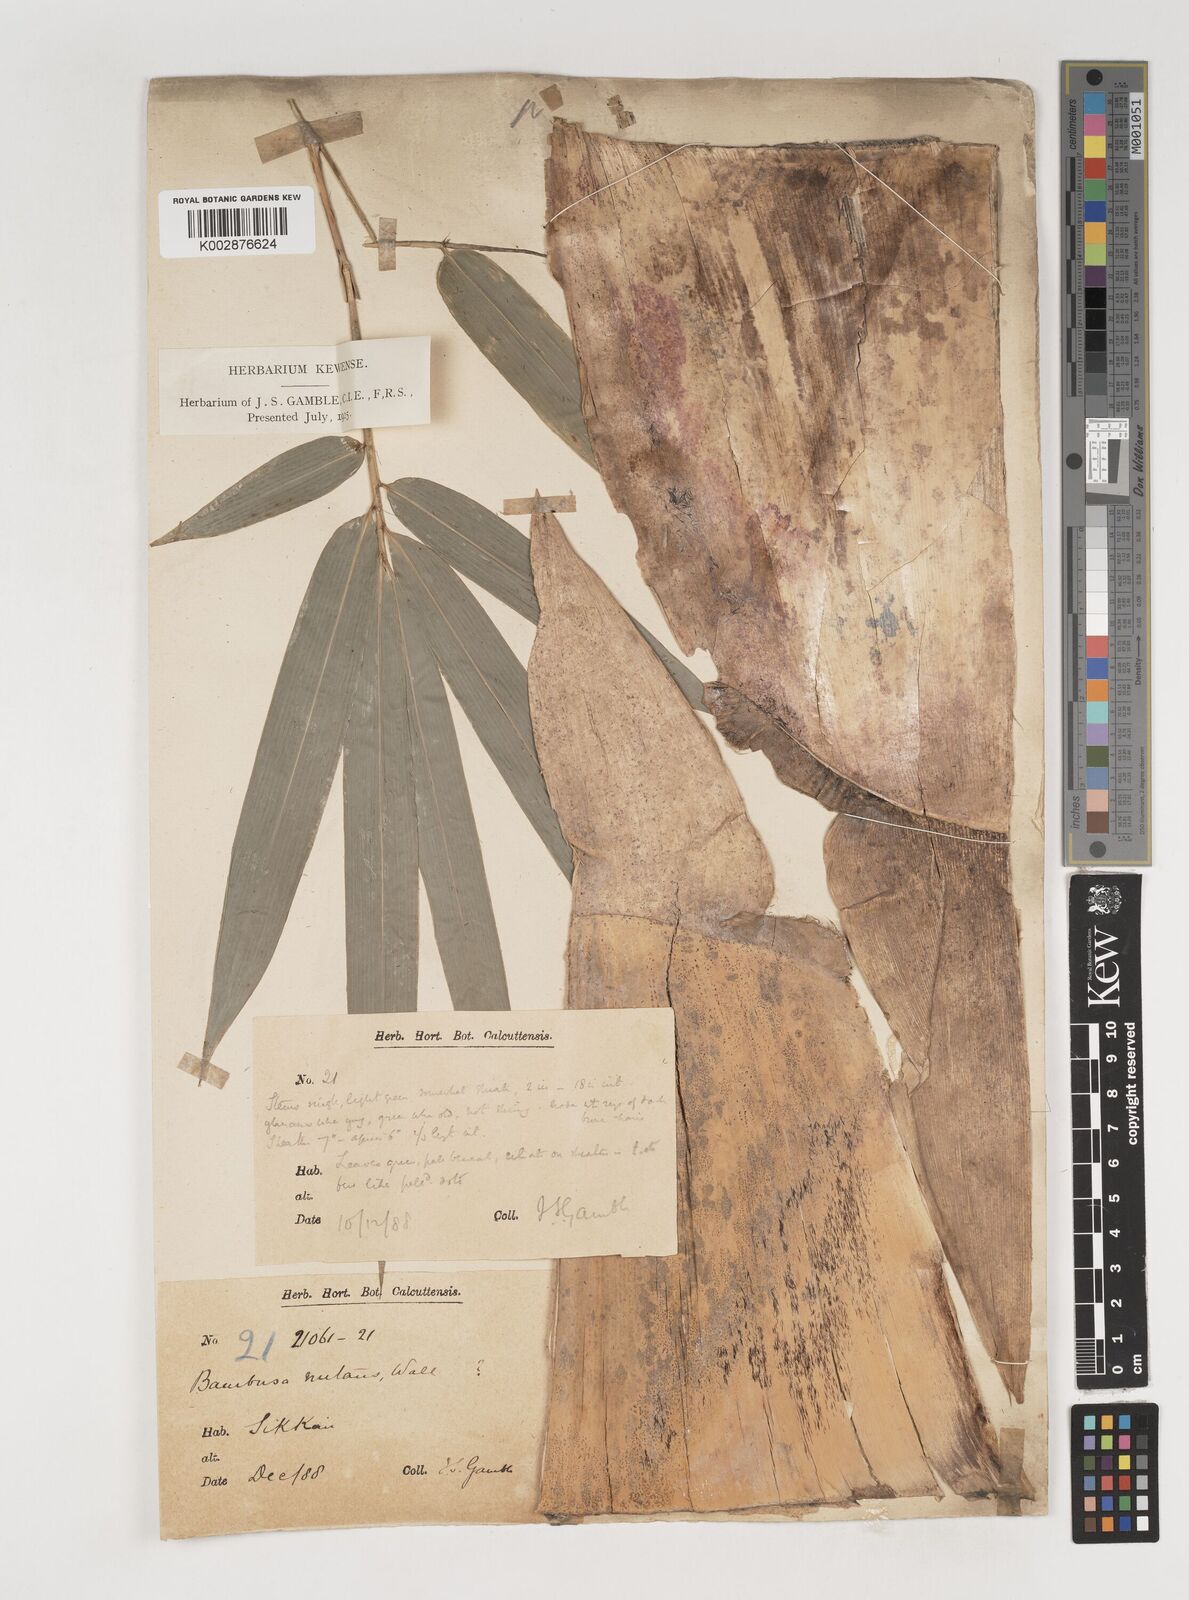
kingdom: Plantae
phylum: Tracheophyta
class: Liliopsida
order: Poales
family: Poaceae
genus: Bambusa
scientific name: Bambusa nutans
